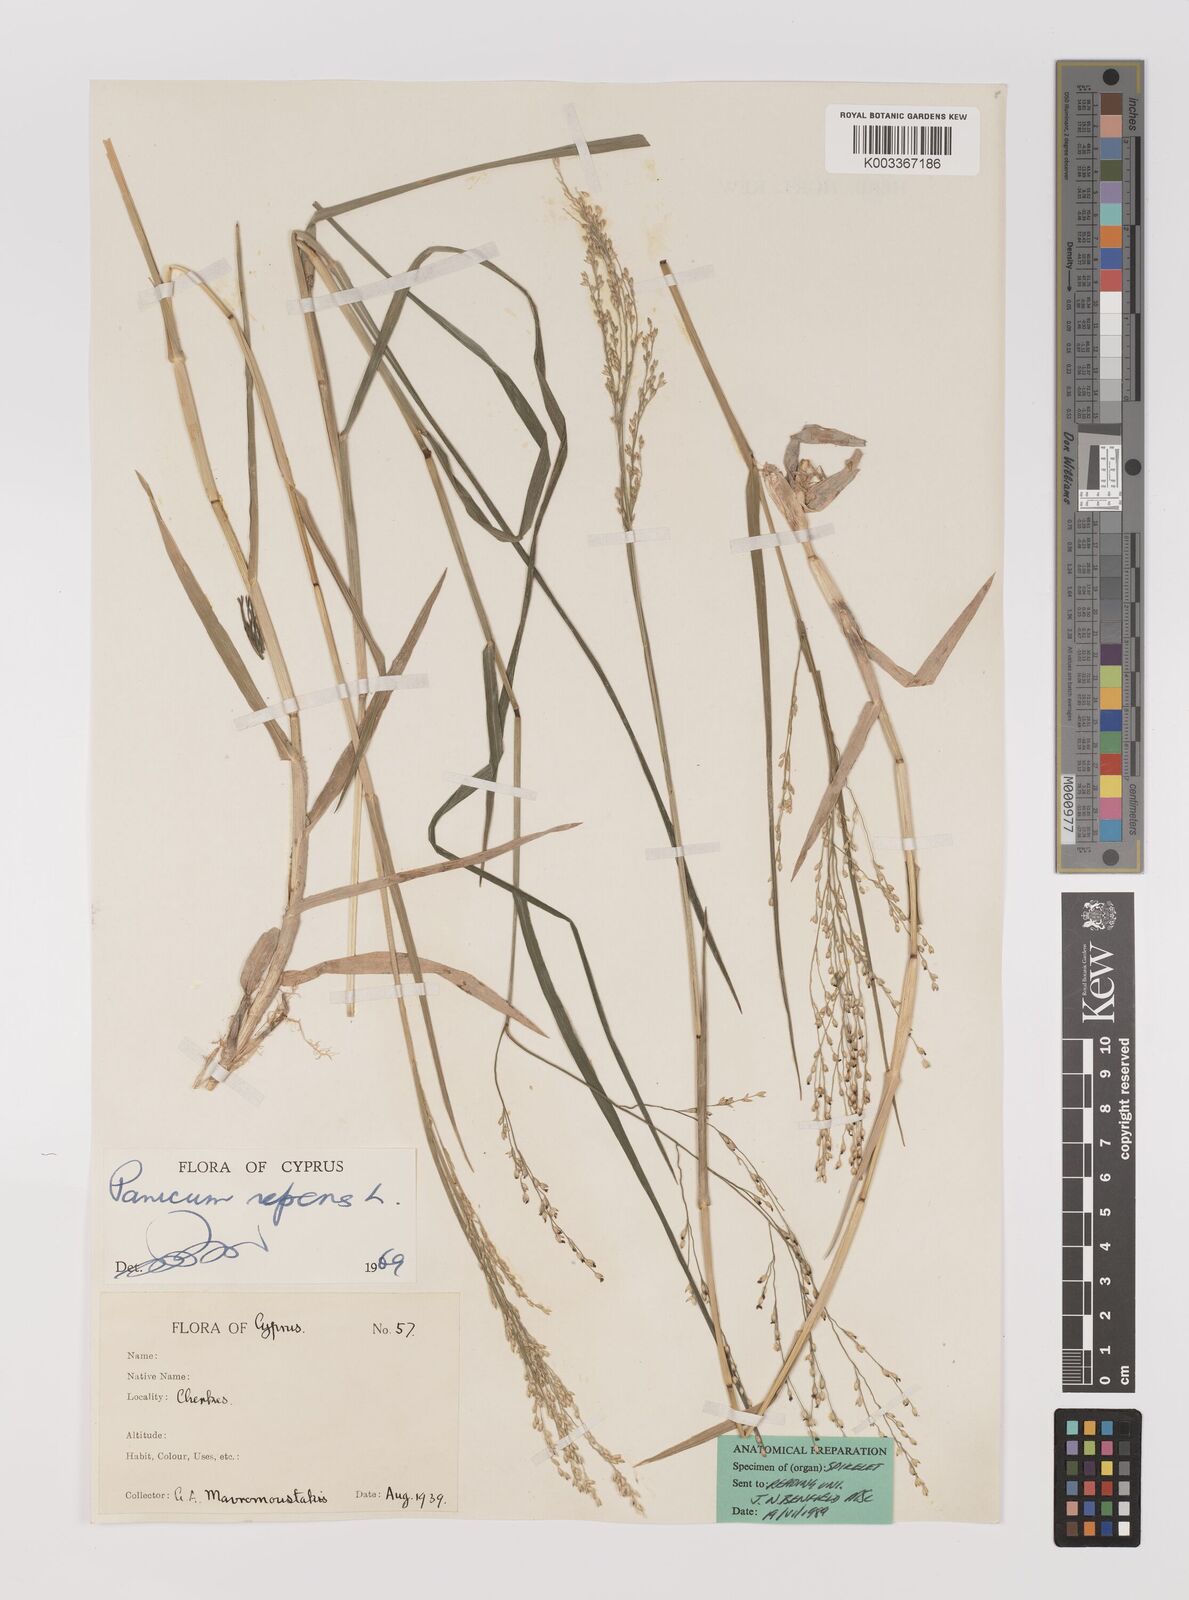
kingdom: Plantae
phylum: Tracheophyta
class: Liliopsida
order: Poales
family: Poaceae
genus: Panicum
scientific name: Panicum repens
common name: Torpedo grass
